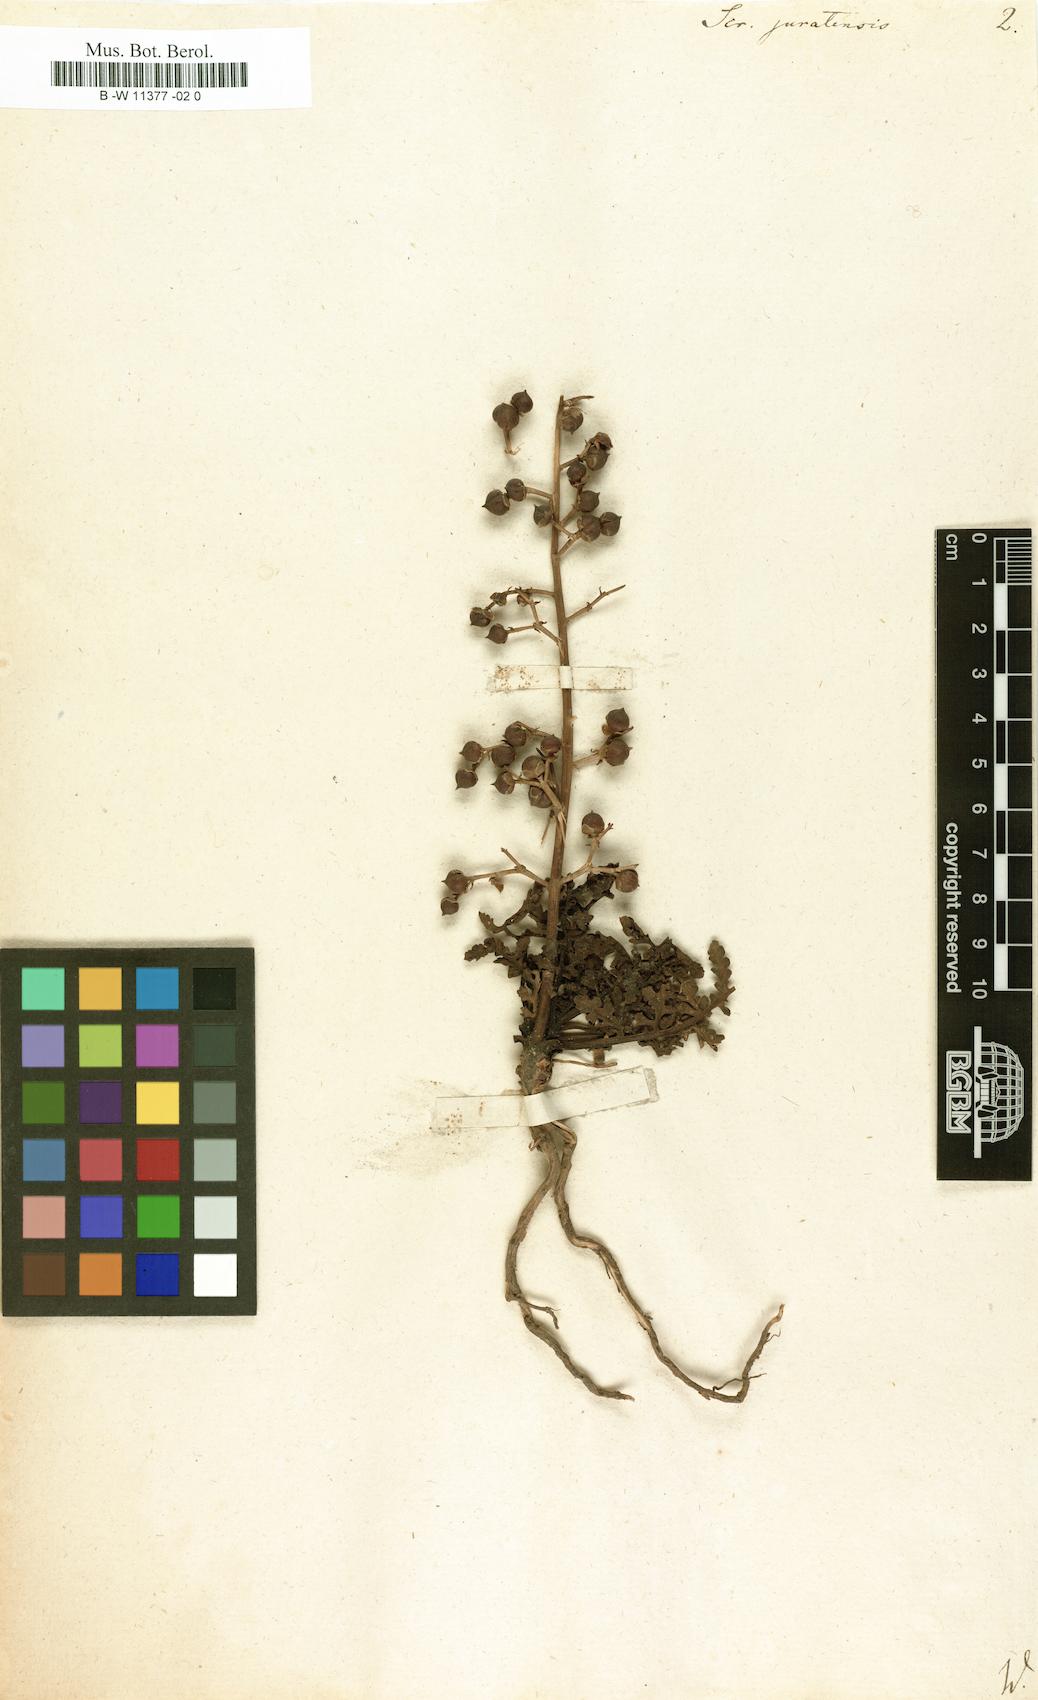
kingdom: Plantae
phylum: Tracheophyta
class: Magnoliopsida
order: Lamiales
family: Scrophulariaceae
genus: Scrophularia
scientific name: Scrophularia canina
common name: French figwort
